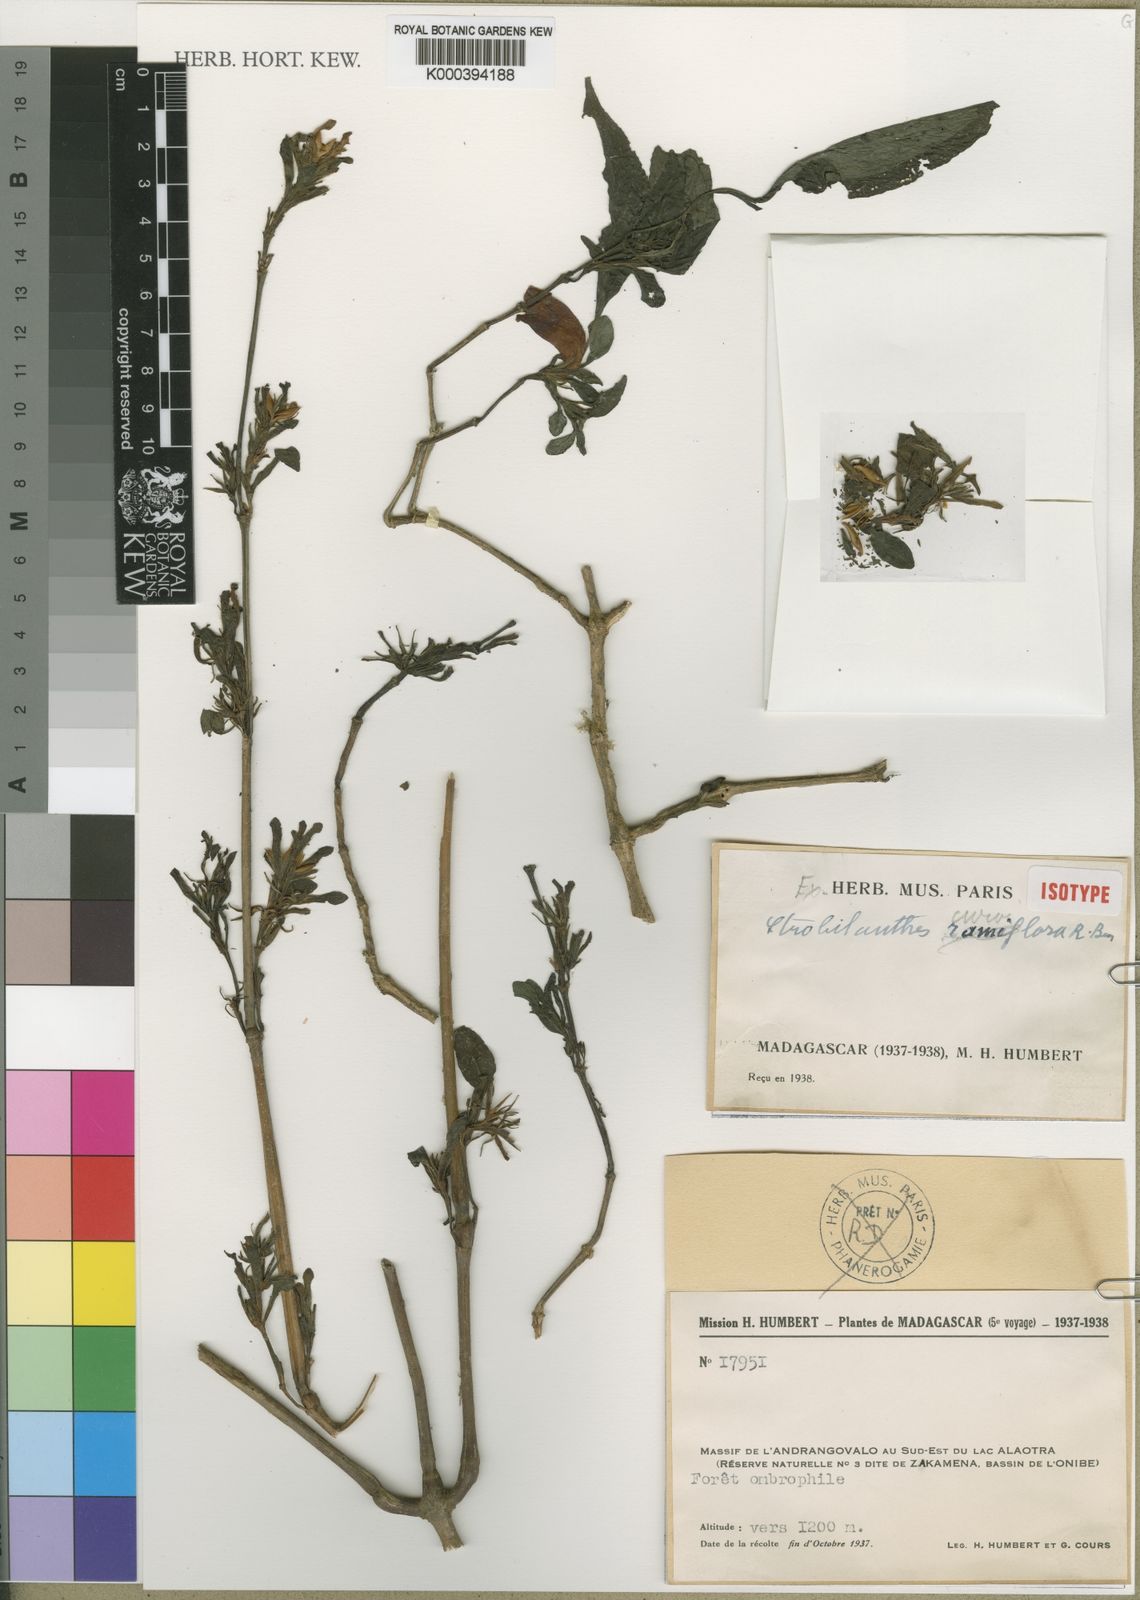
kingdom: Plantae
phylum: Tracheophyta
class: Magnoliopsida
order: Lamiales
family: Acanthaceae
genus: Acanthopale
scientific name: Acanthopale ramiflora
